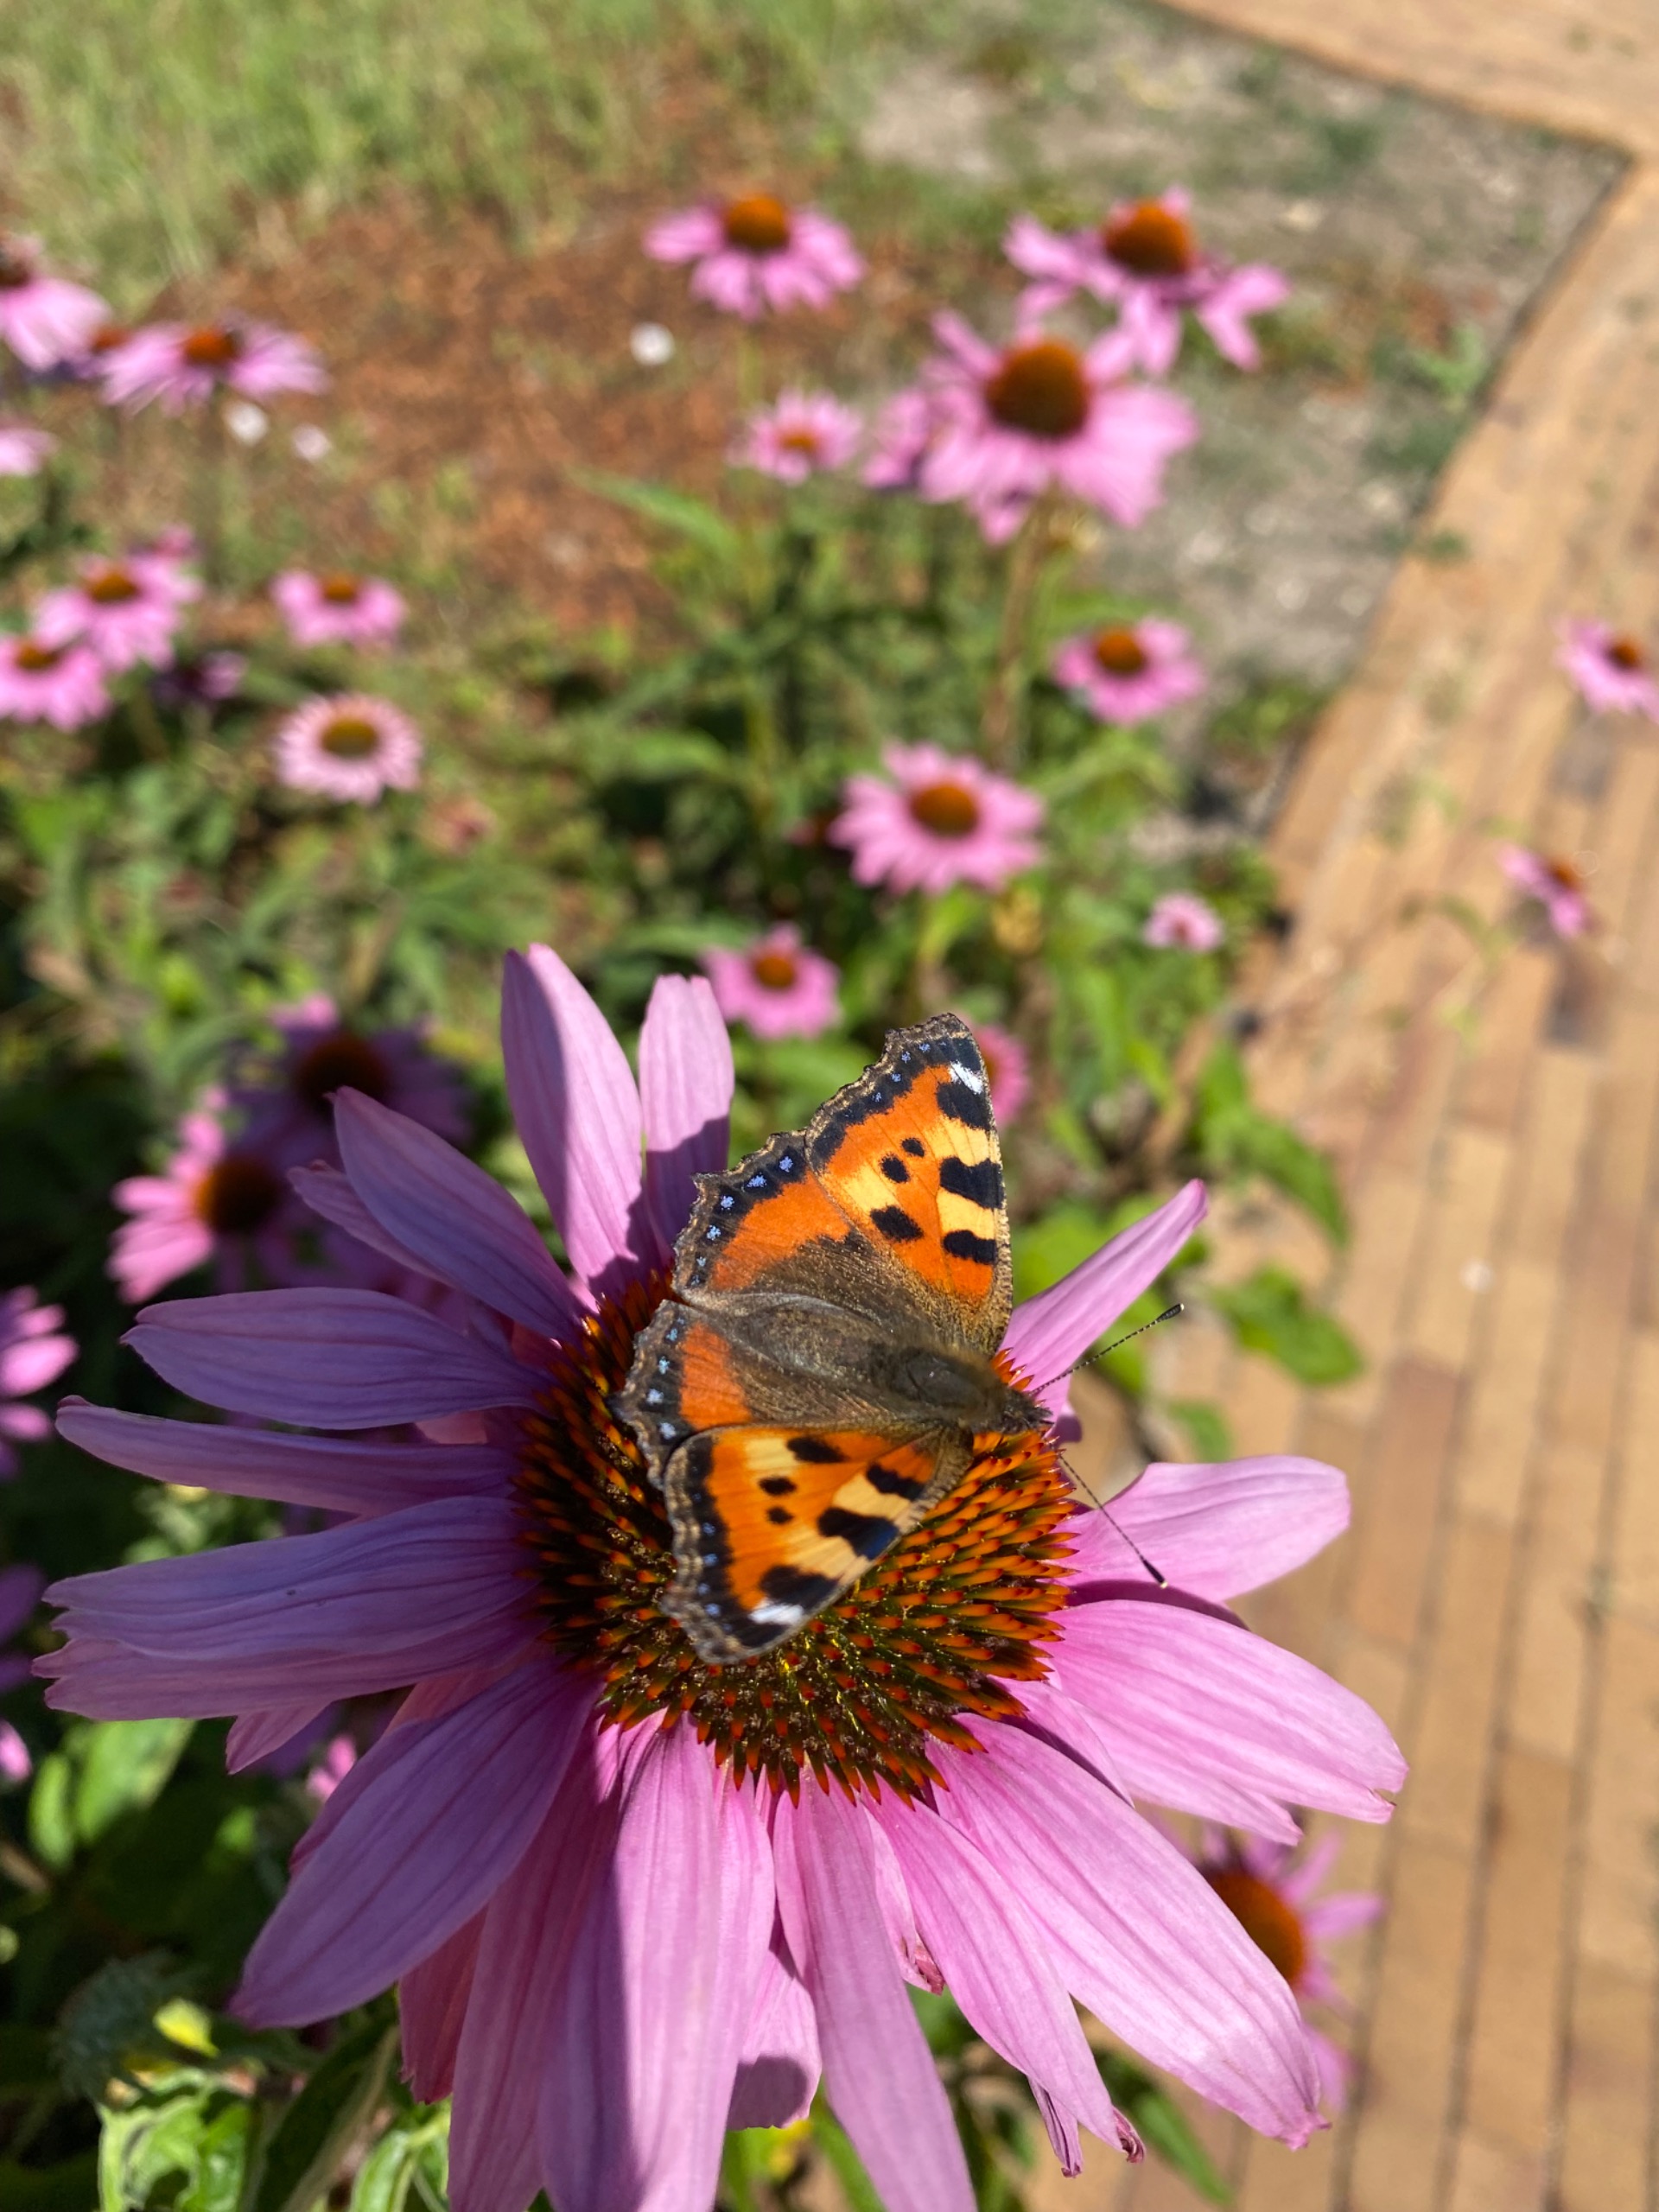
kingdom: Animalia
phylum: Arthropoda
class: Insecta
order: Lepidoptera
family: Nymphalidae
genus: Aglais
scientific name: Aglais urticae
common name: Nældens takvinge
